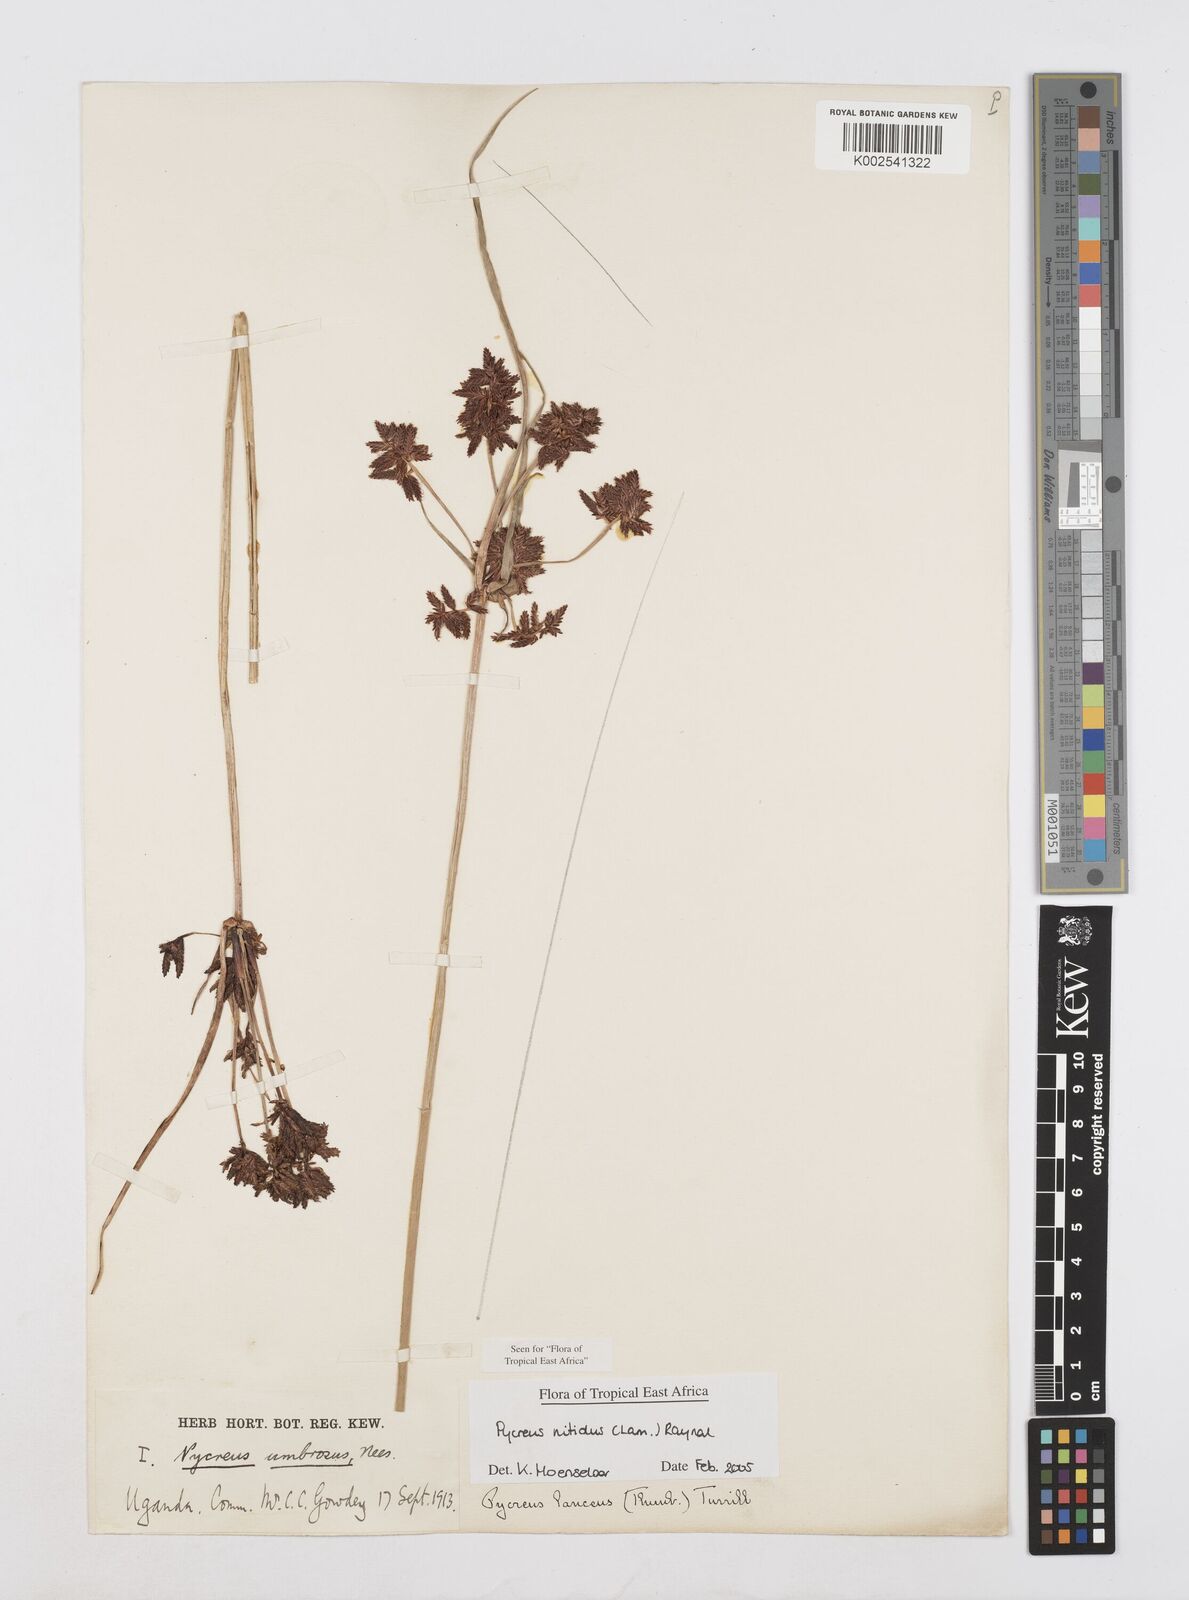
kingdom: Plantae
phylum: Tracheophyta
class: Liliopsida
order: Poales
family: Cyperaceae
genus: Cyperus
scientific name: Cyperus nitidus
